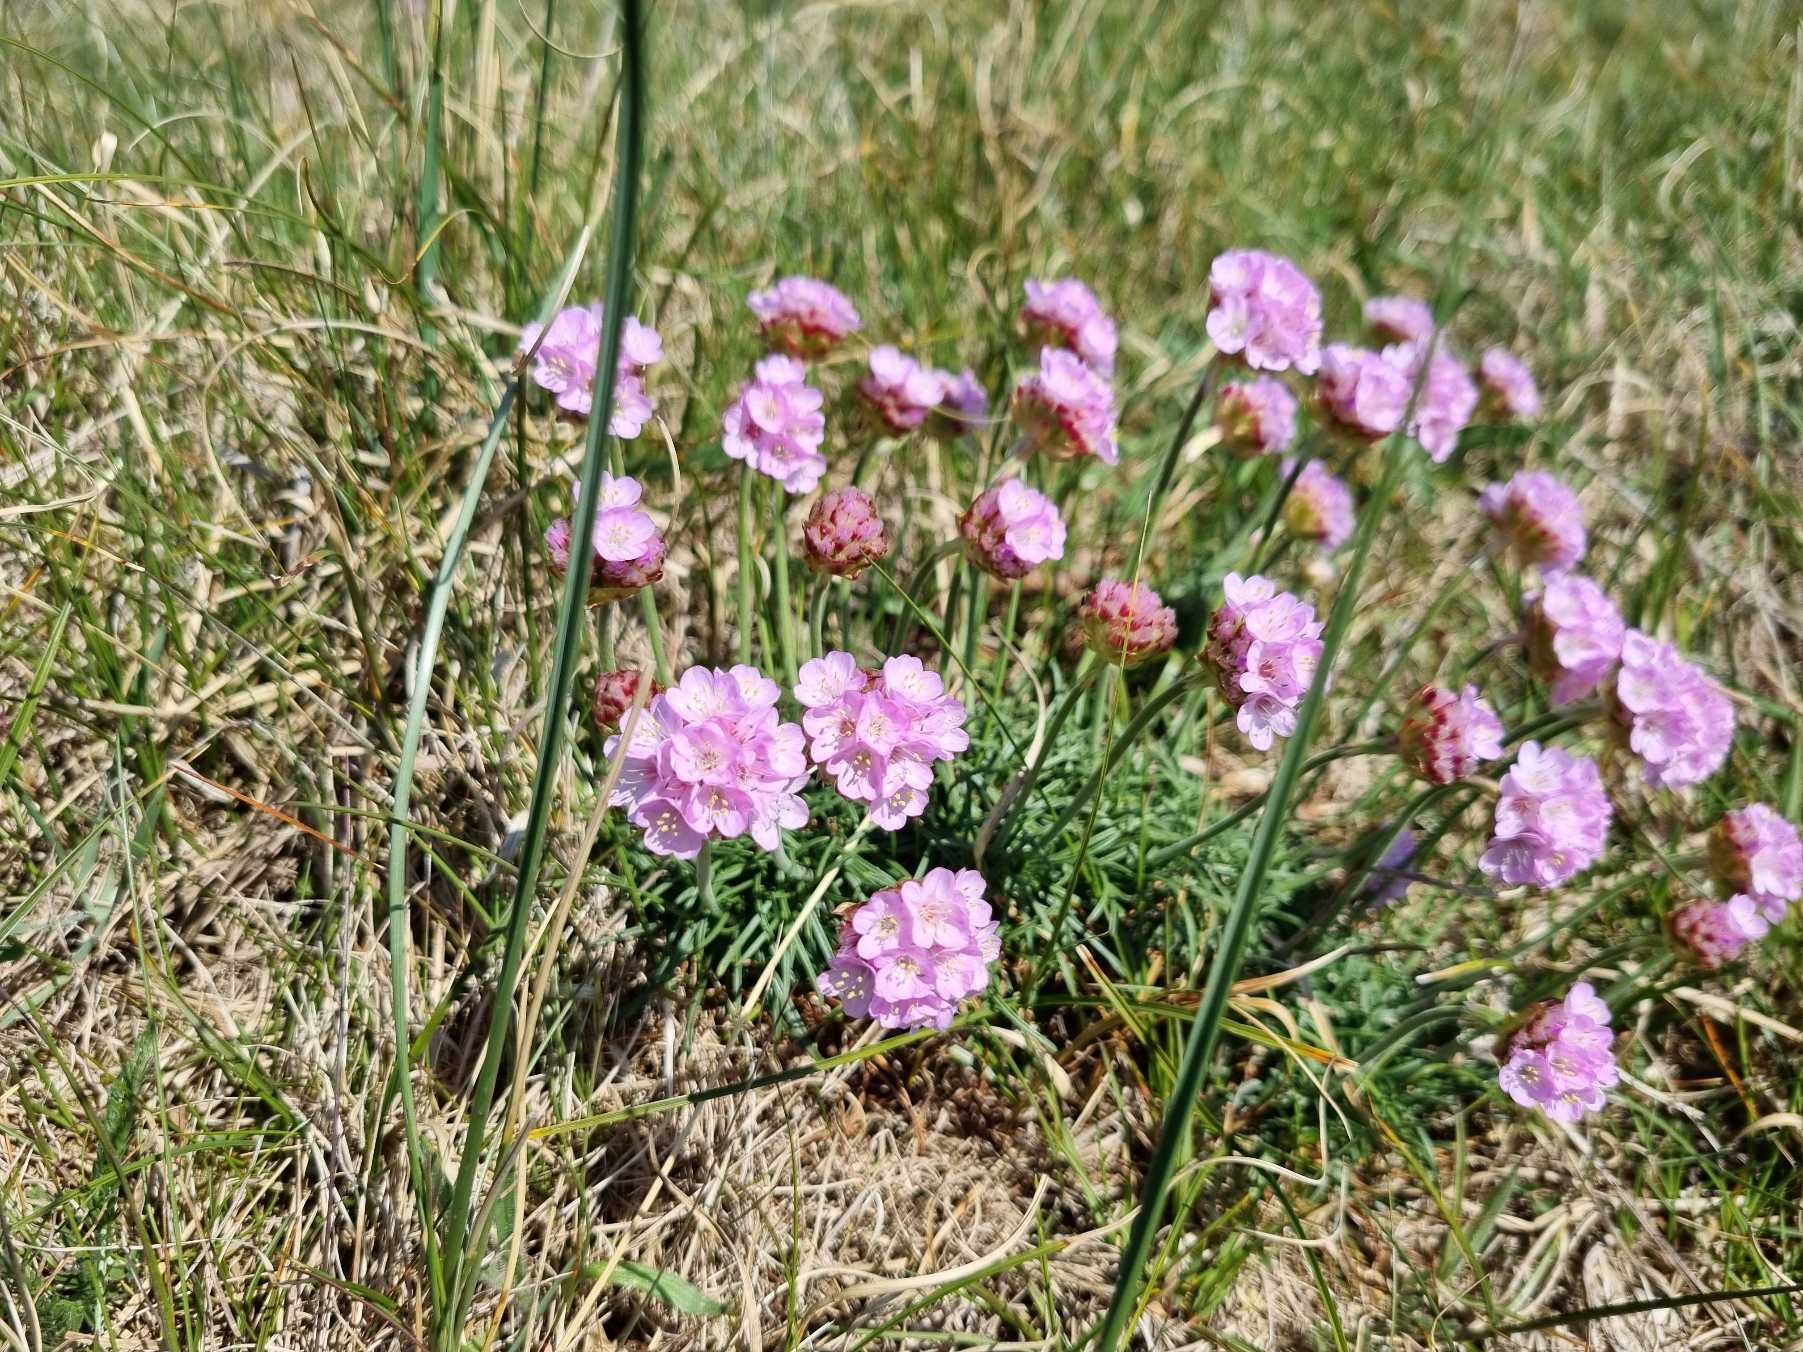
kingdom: Plantae
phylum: Tracheophyta
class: Magnoliopsida
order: Caryophyllales
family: Plumbaginaceae
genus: Armeria
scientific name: Armeria maritima
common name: Engelskgræs
